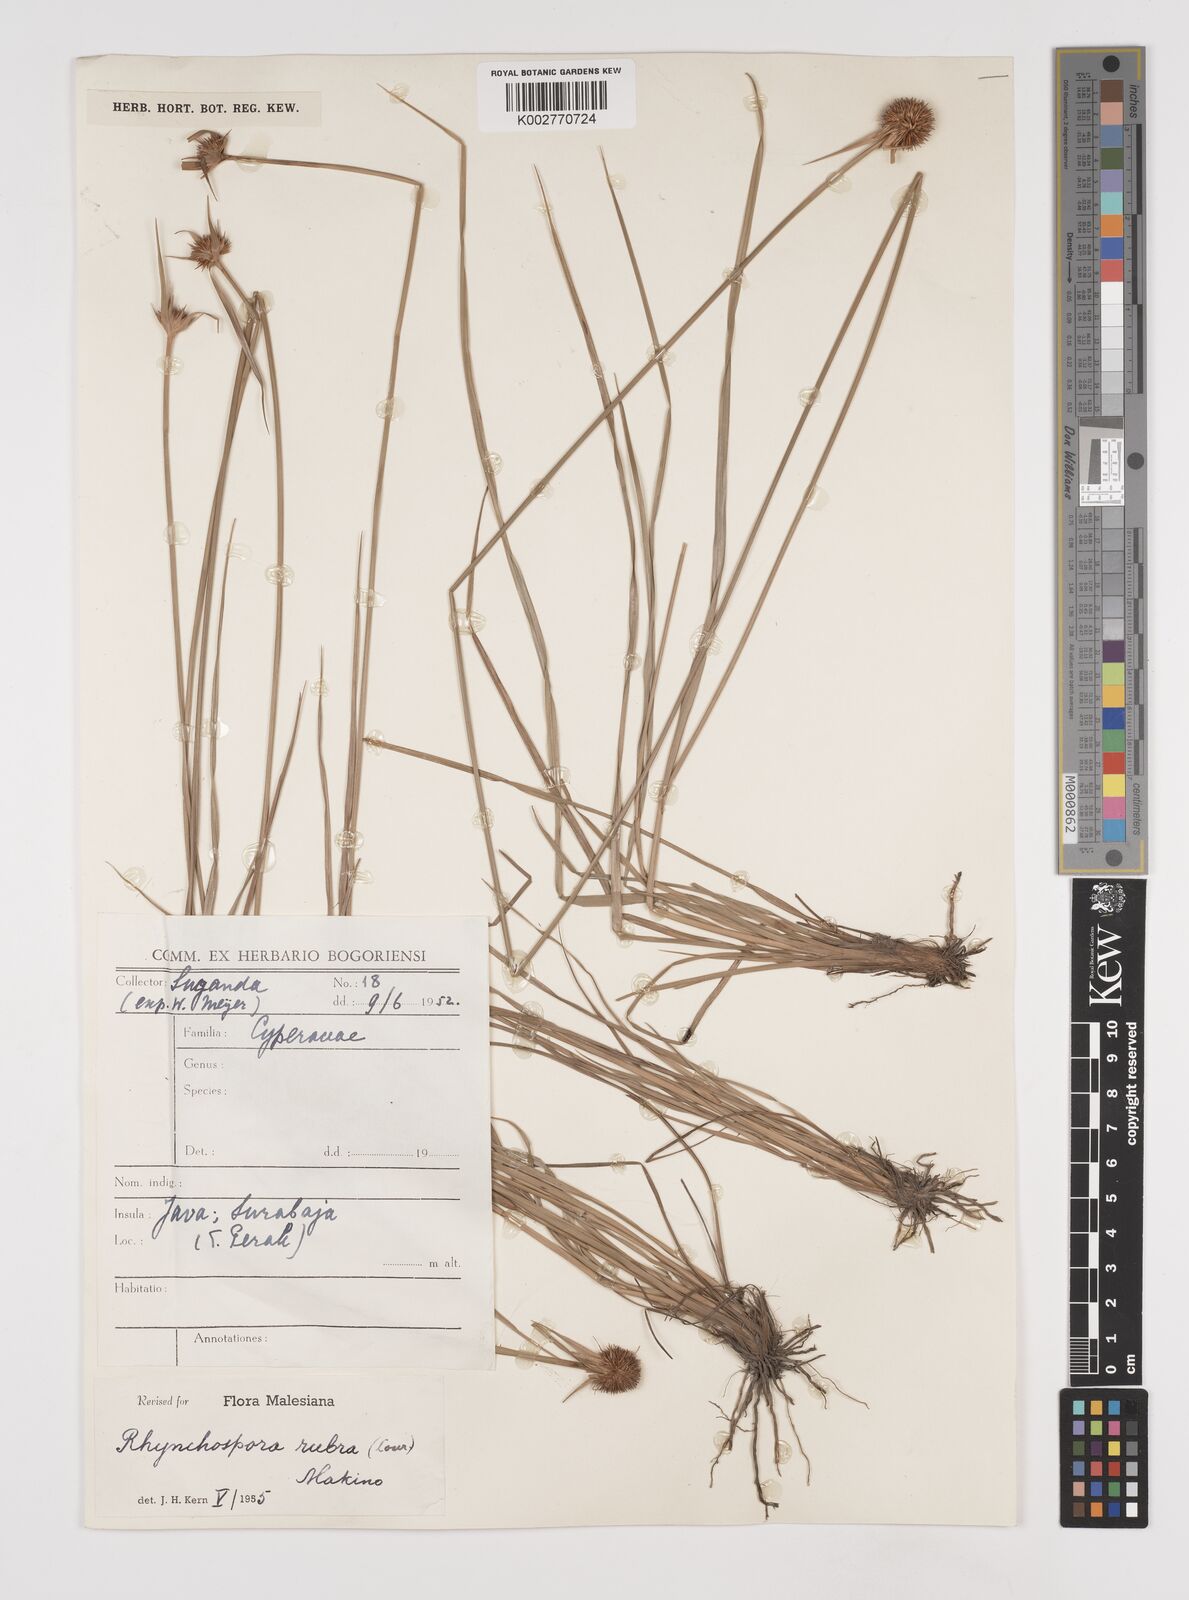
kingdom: Plantae
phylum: Tracheophyta
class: Liliopsida
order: Poales
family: Cyperaceae
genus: Rhynchospora
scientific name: Rhynchospora rubra
